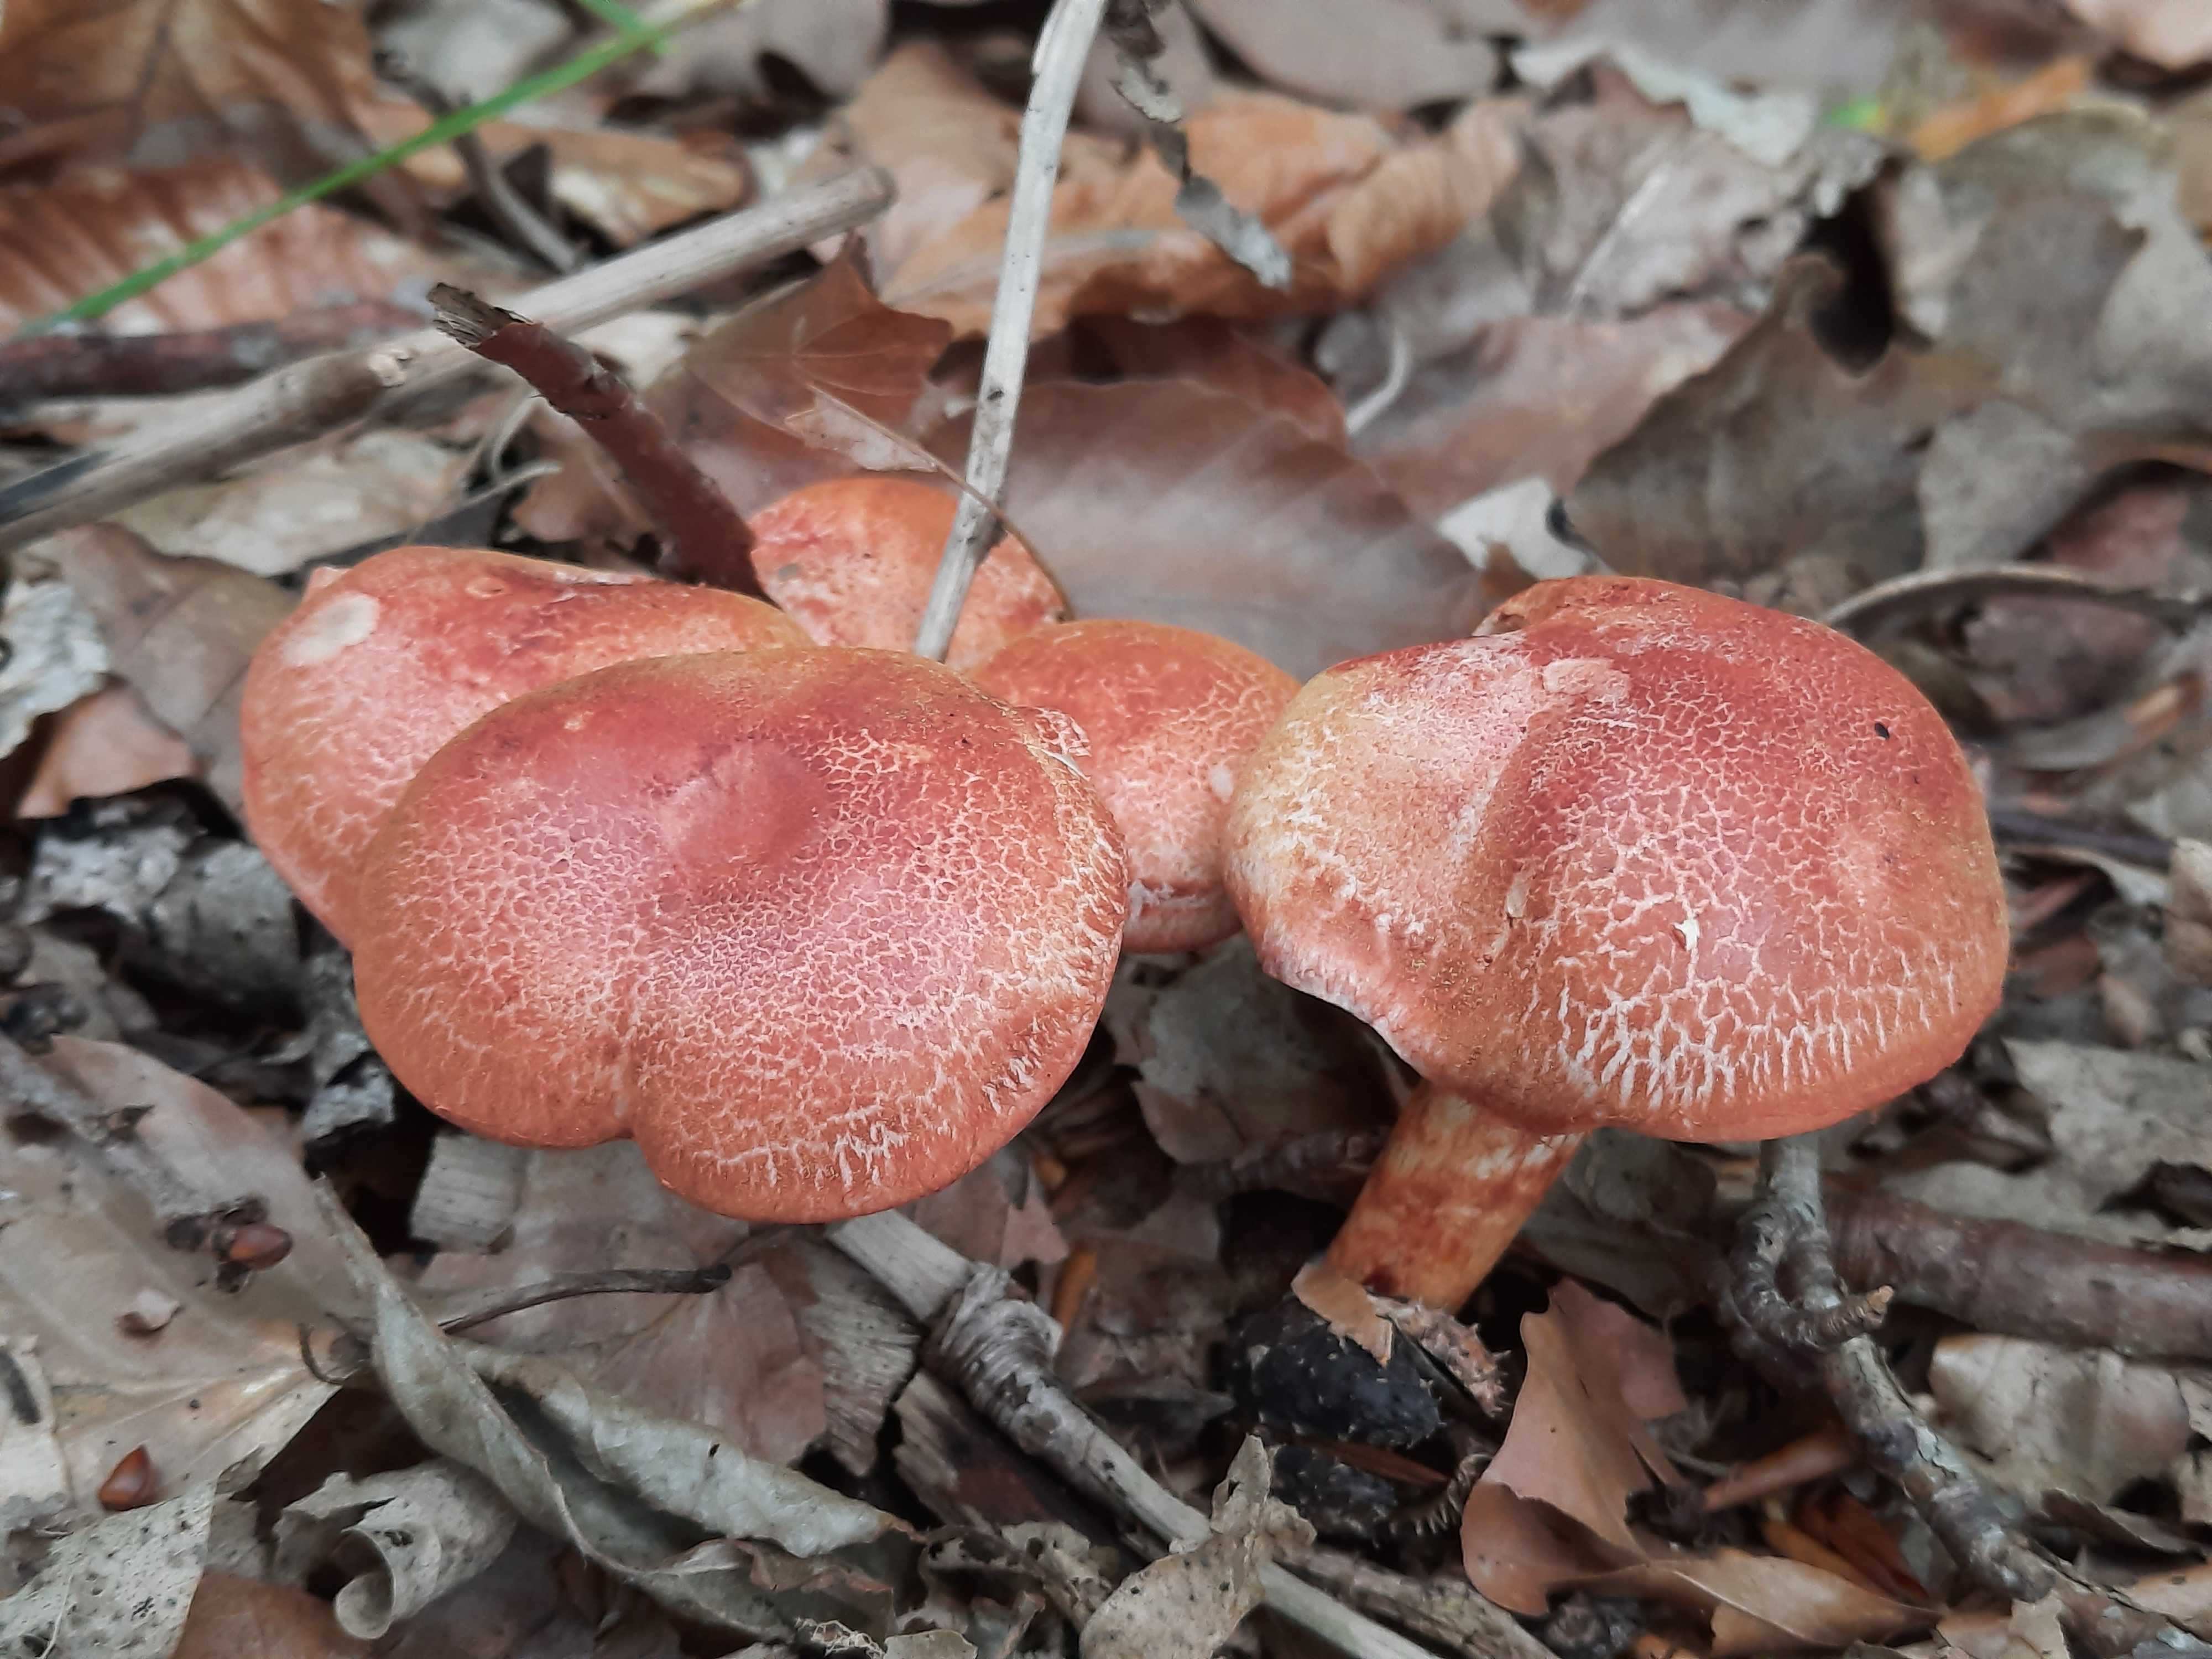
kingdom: Fungi
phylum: Basidiomycota
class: Agaricomycetes
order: Agaricales
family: Cortinariaceae
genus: Cortinarius
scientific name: Cortinarius bolaris
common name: cinnoberskællet slørhat
